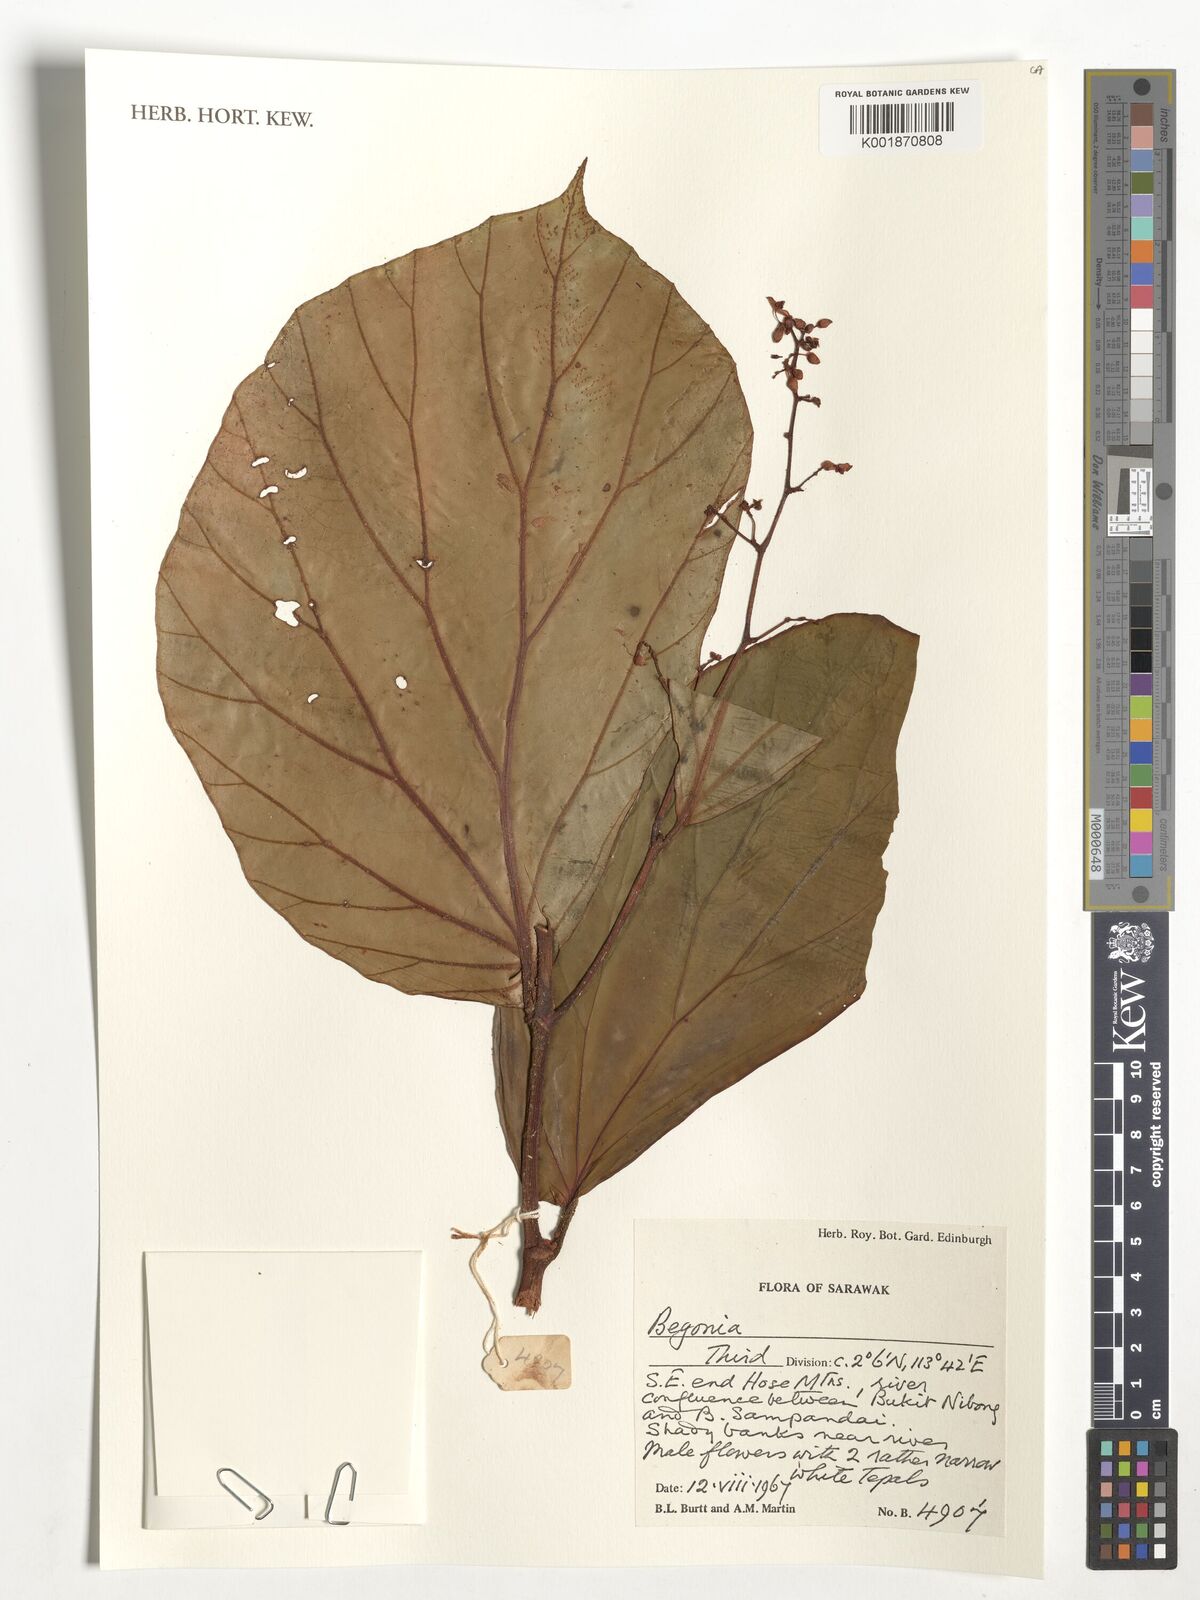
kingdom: Plantae
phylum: Tracheophyta
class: Magnoliopsida
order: Cucurbitales
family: Begoniaceae
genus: Begonia
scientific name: Begonia
